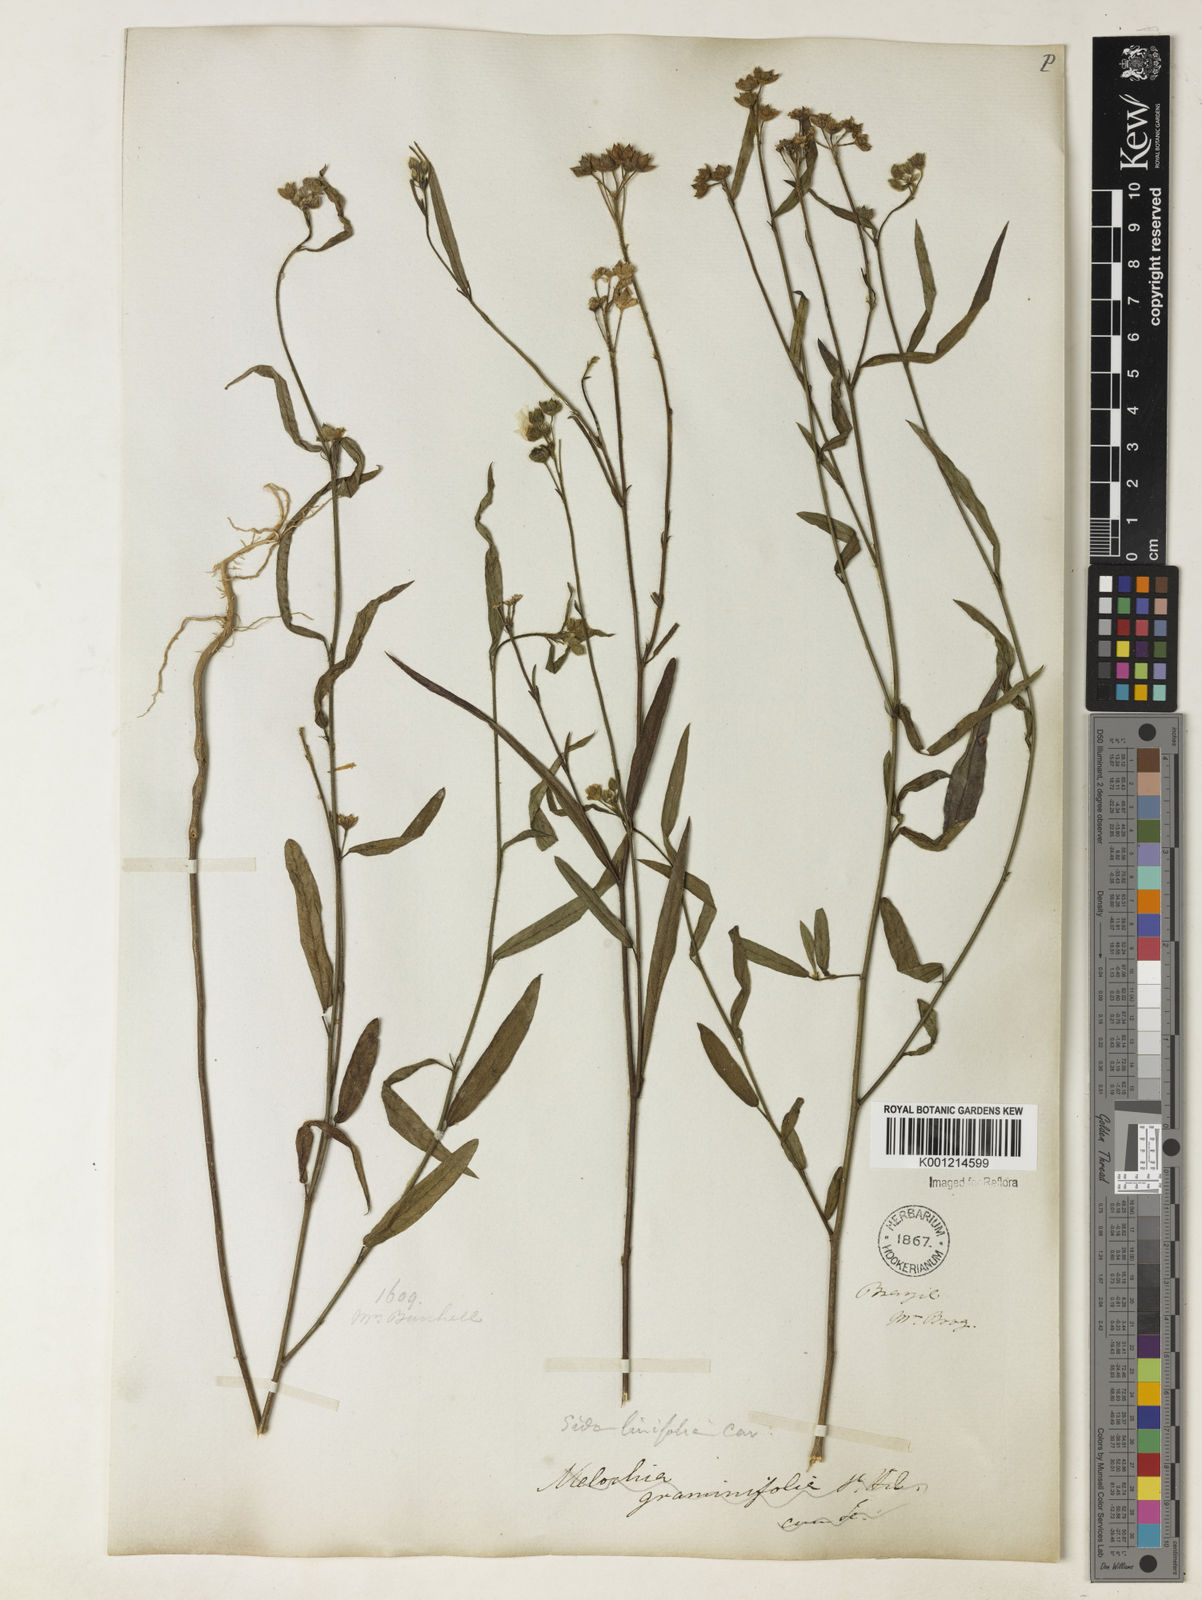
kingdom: Plantae
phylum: Tracheophyta
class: Magnoliopsida
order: Malvales
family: Malvaceae
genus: Sida
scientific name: Sida linifolia
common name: Flaxleaf fanpetals
